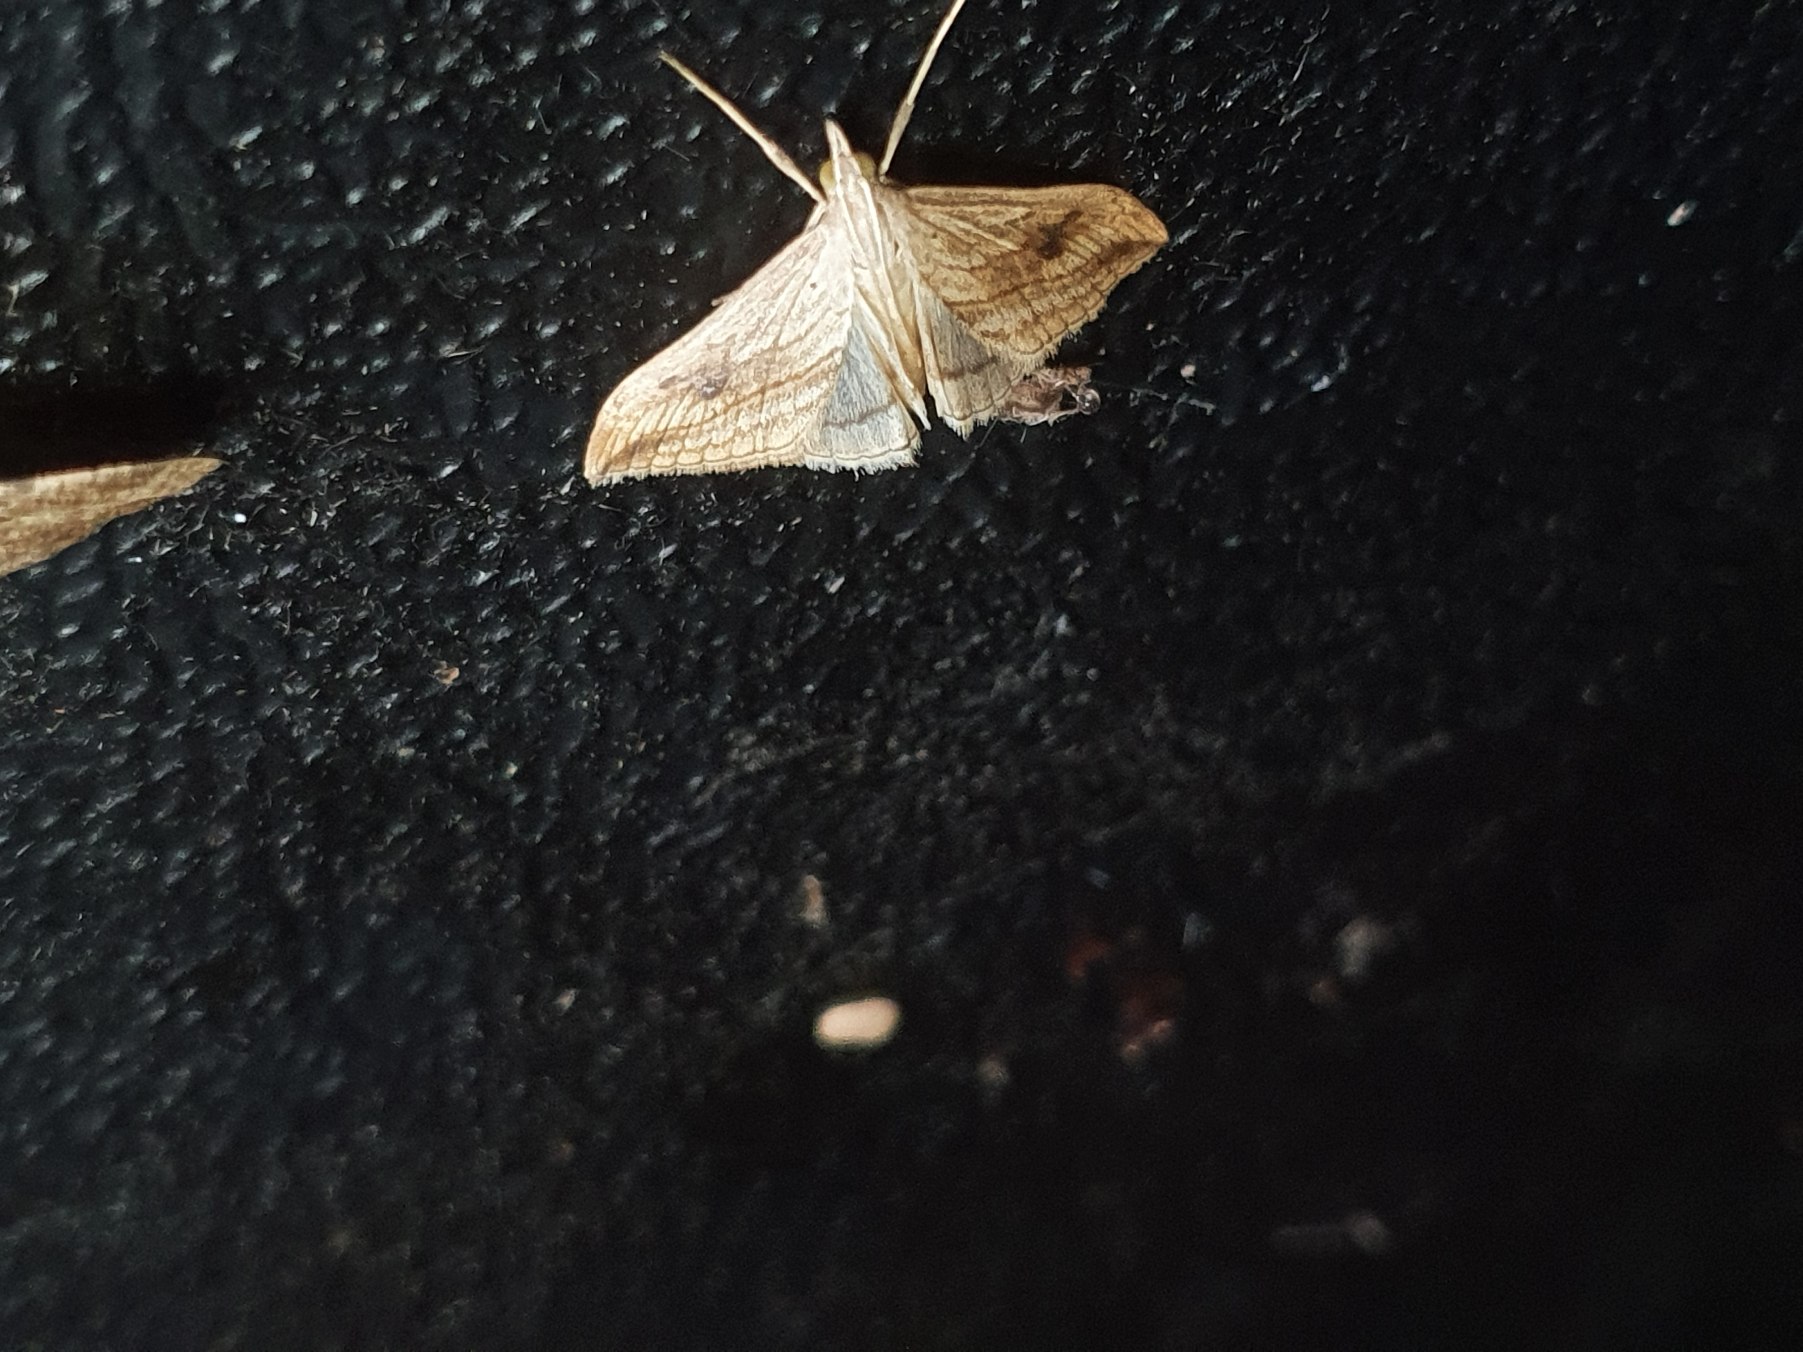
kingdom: Animalia
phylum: Arthropoda
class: Insecta
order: Lepidoptera
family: Crambidae
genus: Evergestis
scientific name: Evergestis forficalis
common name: Kålhalvmøl
